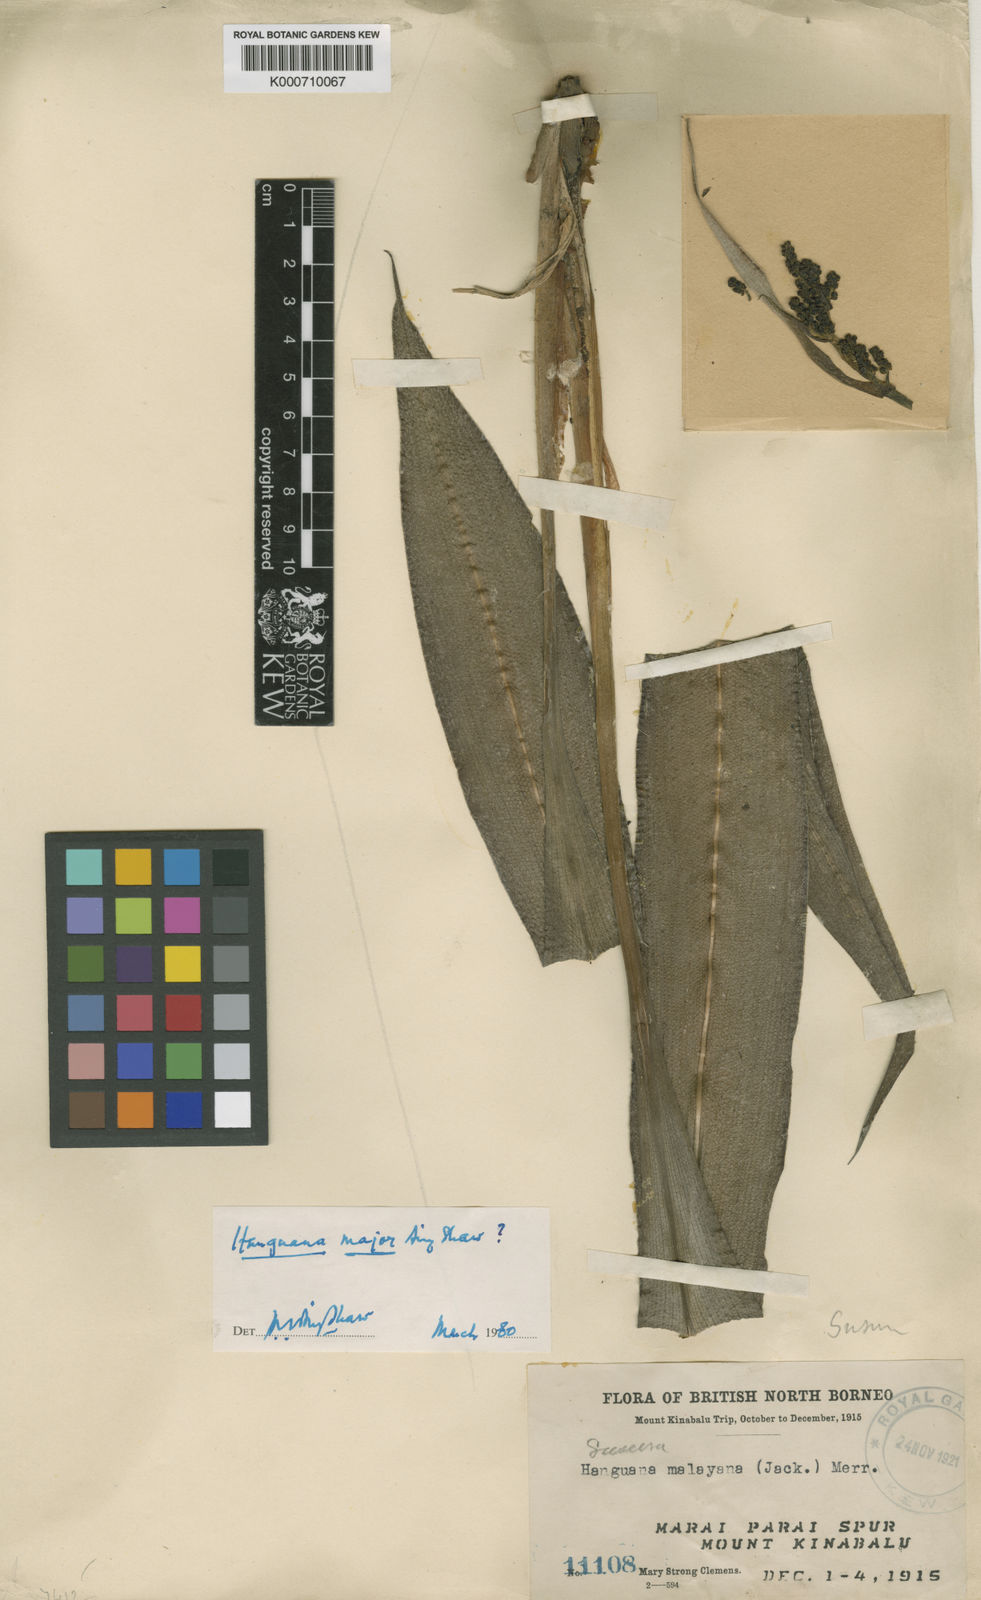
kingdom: Plantae
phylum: Tracheophyta
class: Liliopsida
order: Commelinales
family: Hanguanaceae
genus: Hanguana
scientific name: Hanguana major
